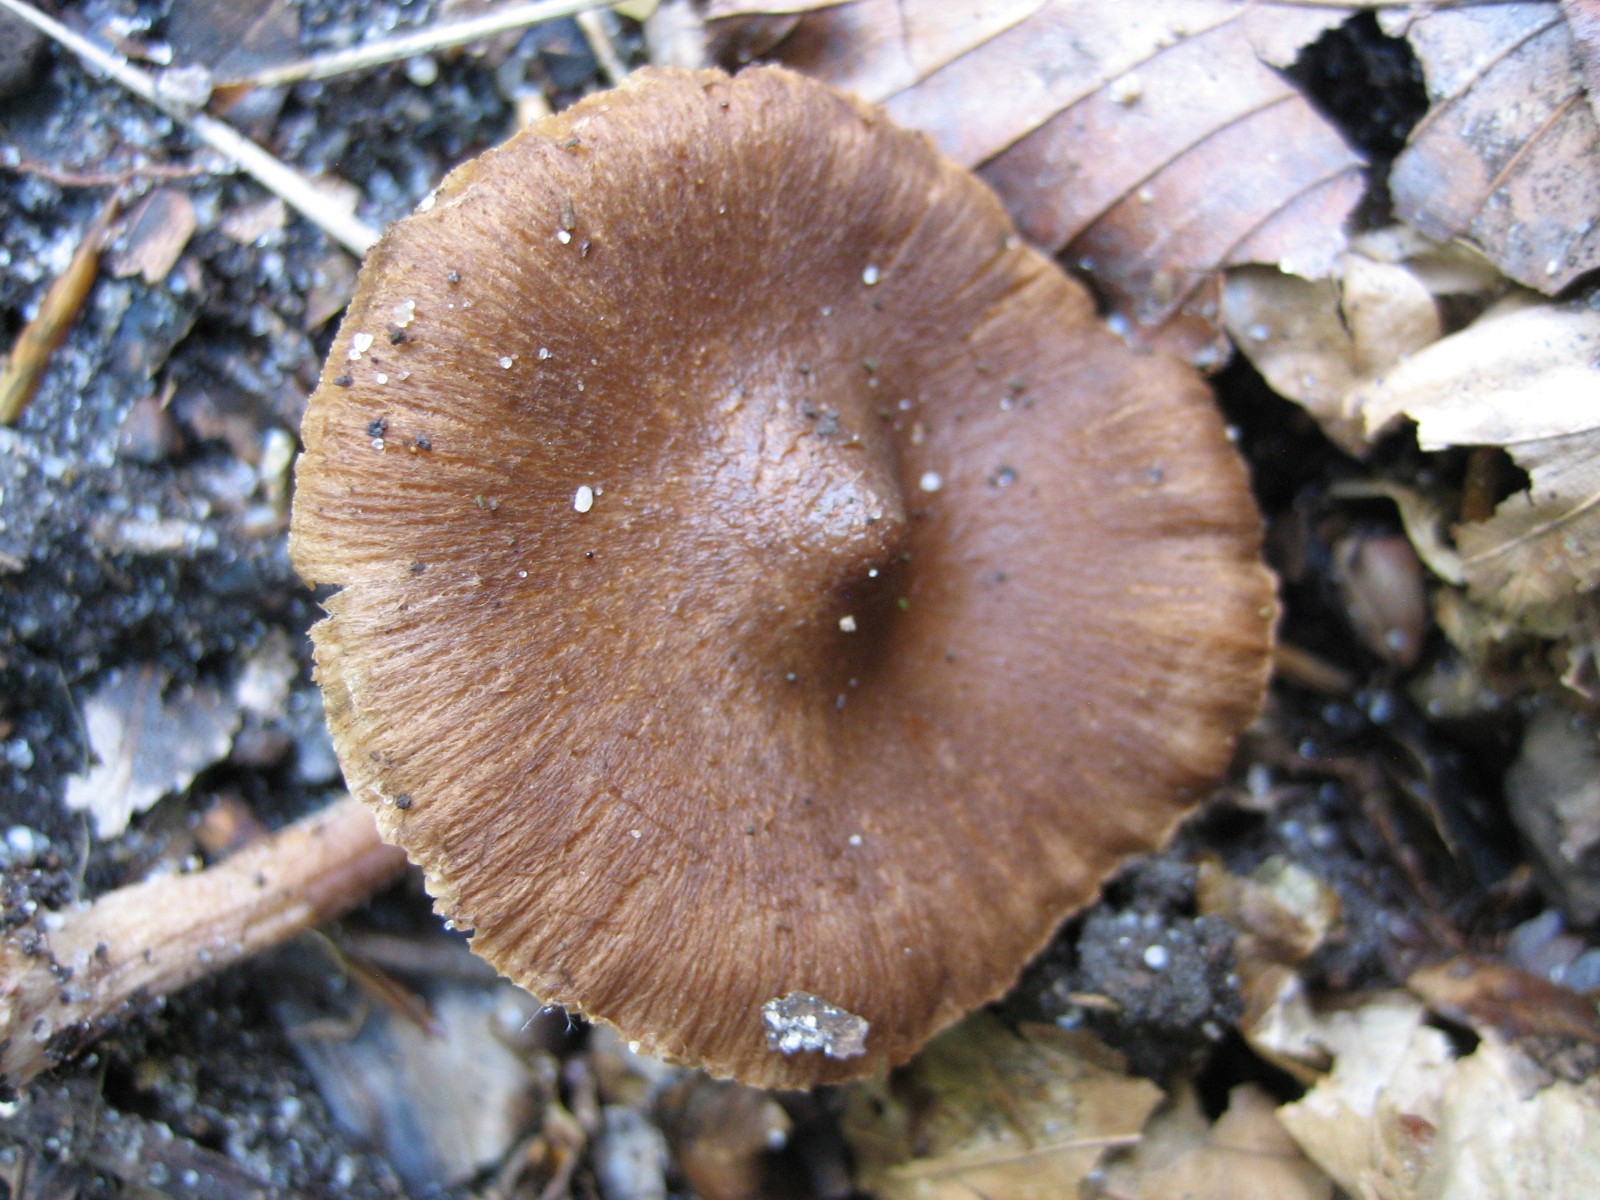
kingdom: Fungi
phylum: Basidiomycota
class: Agaricomycetes
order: Agaricales
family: Inocybaceae
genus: Inocybe
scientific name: Inocybe
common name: trævlhat
